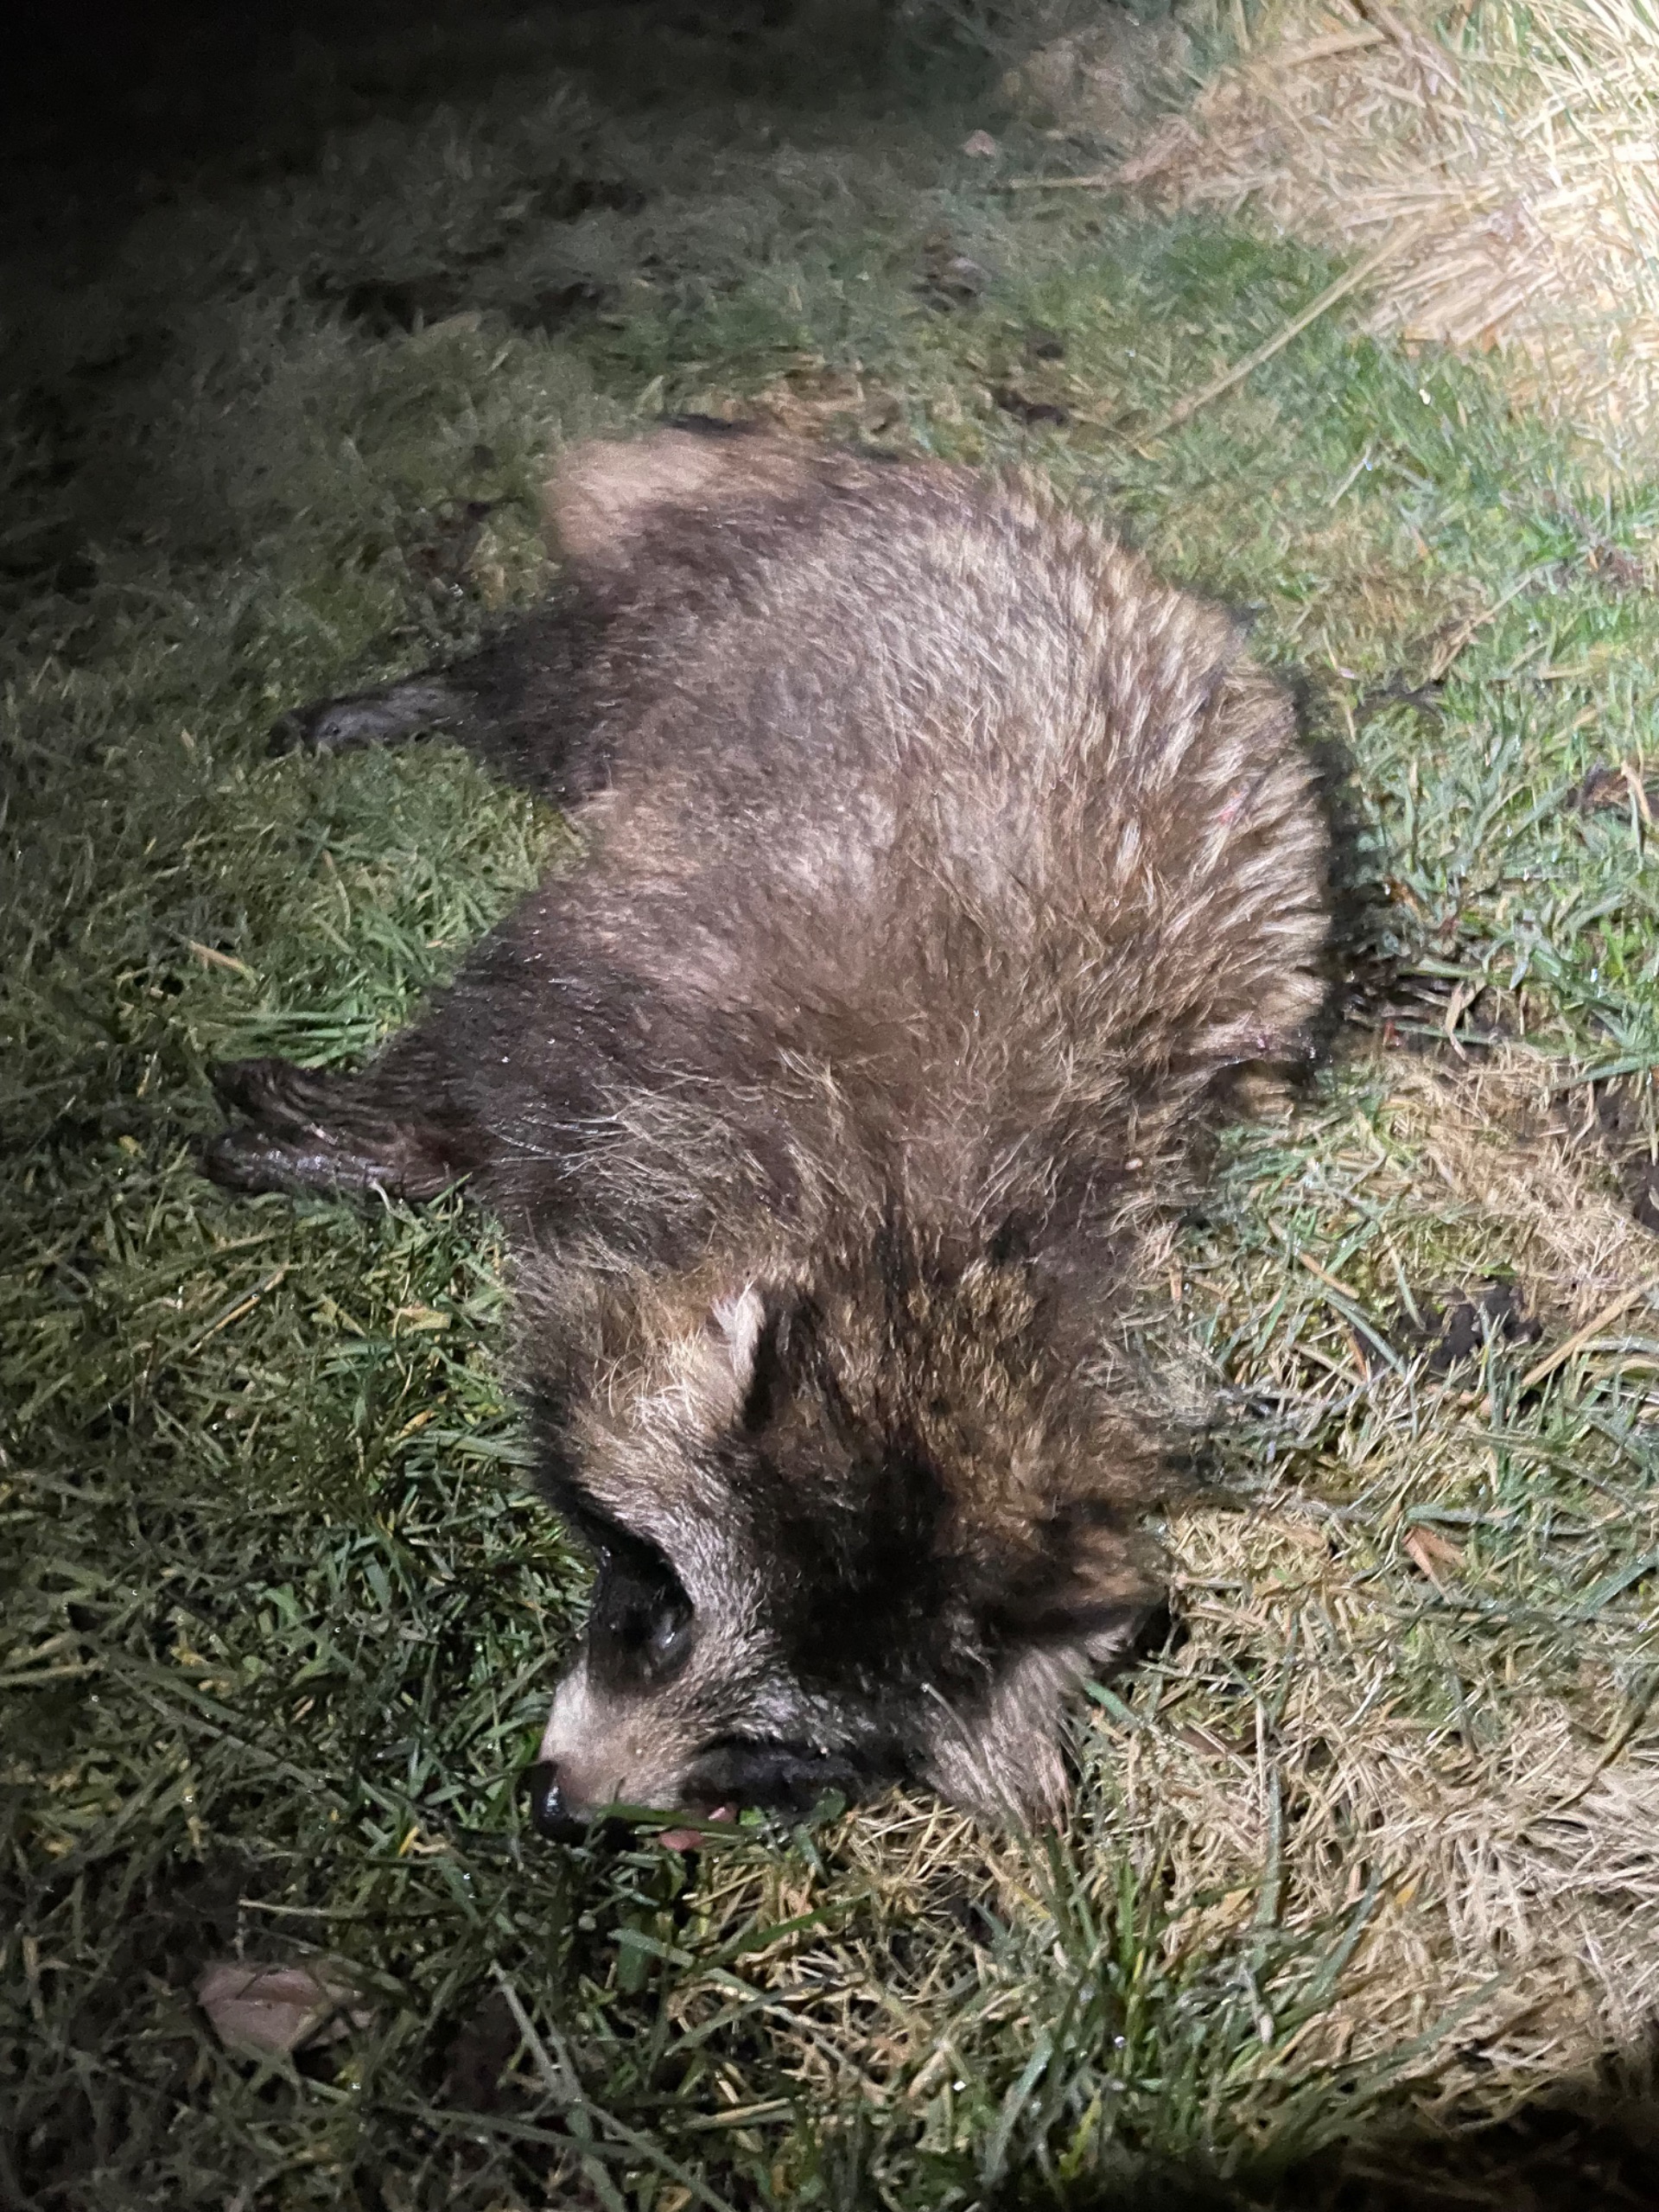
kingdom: Animalia
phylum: Chordata
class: Mammalia
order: Carnivora
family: Canidae
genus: Nyctereutes
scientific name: Nyctereutes procyonoides
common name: Mårhund
